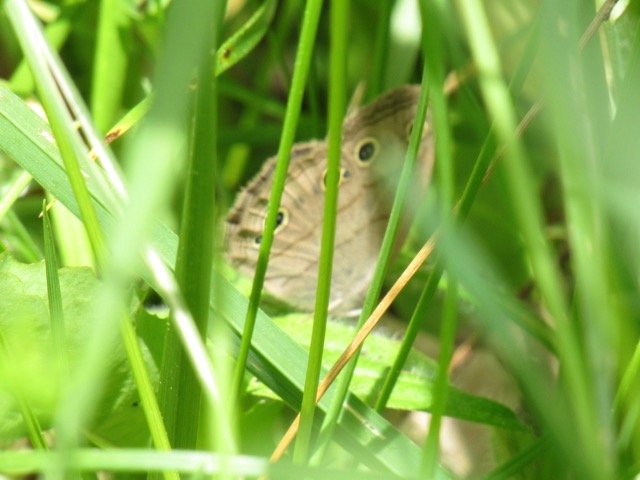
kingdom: Animalia
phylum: Arthropoda
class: Insecta
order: Lepidoptera
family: Nymphalidae
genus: Euptychia
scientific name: Euptychia cymela
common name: Little Wood Satyr
